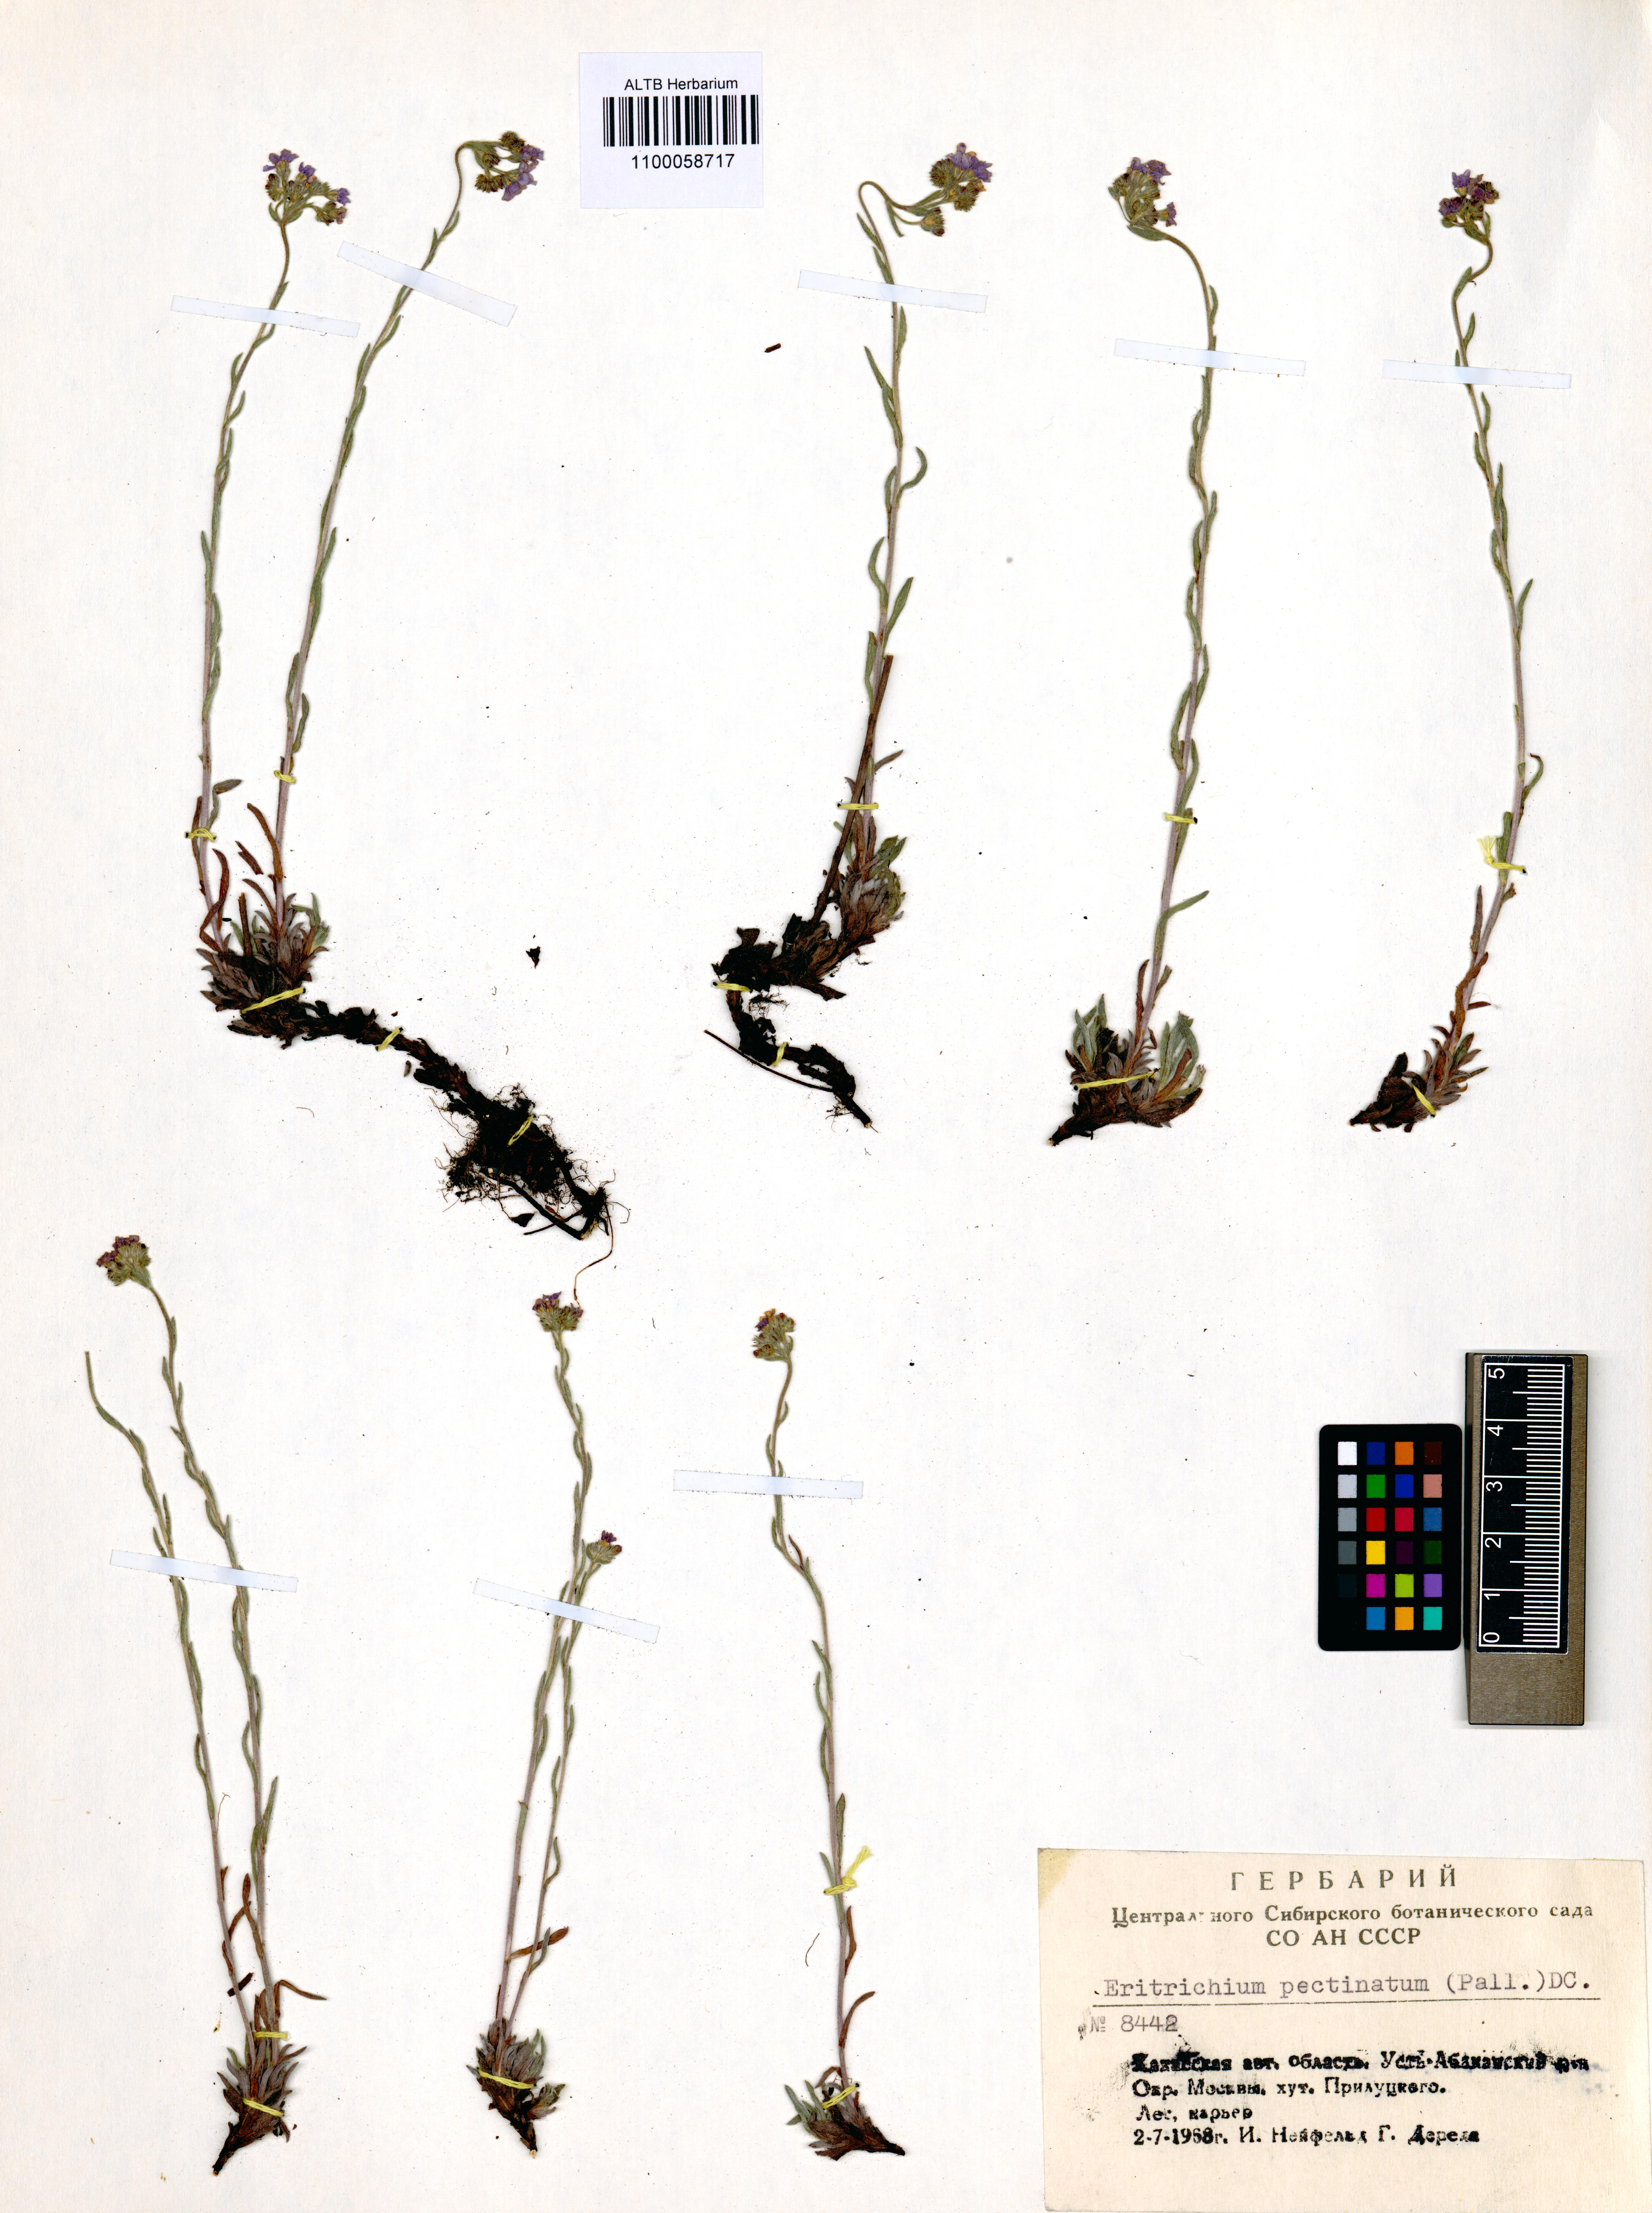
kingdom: Plantae
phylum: Tracheophyta
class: Magnoliopsida
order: Boraginales
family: Boraginaceae
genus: Eritrichium
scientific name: Eritrichium pectinatum
